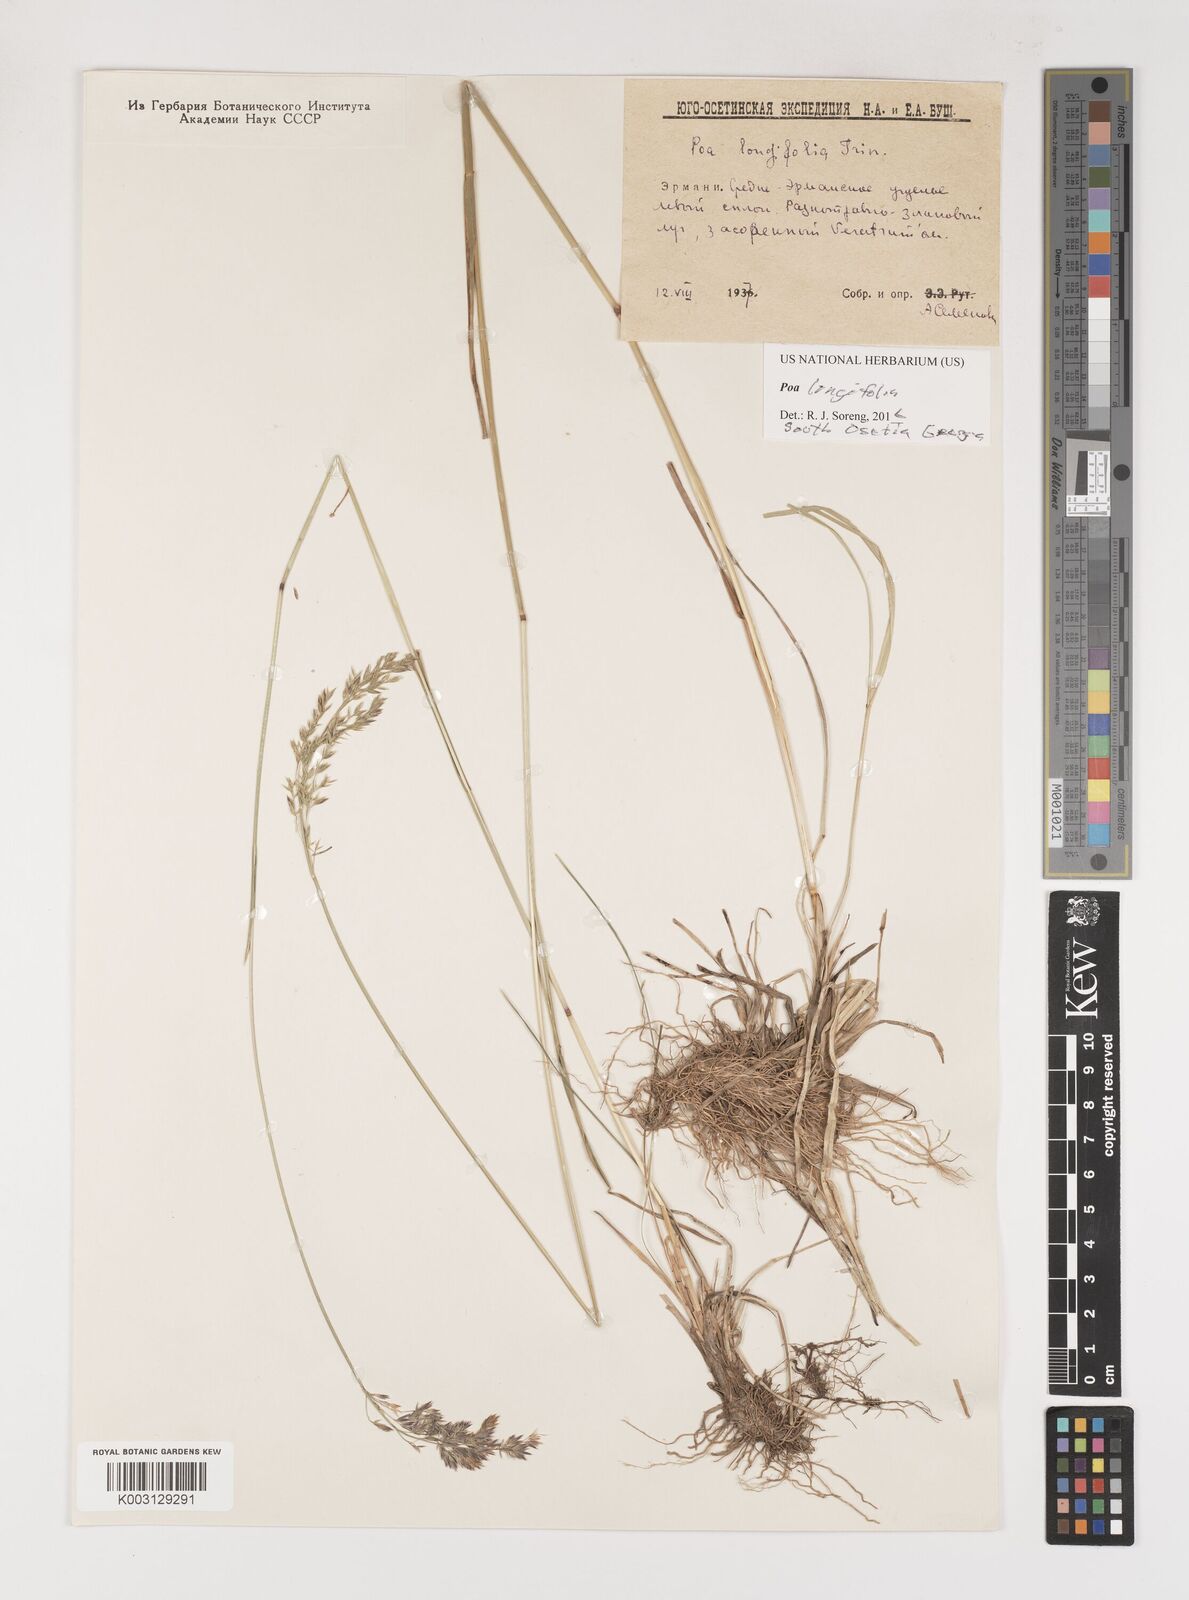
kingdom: Plantae
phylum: Tracheophyta
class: Liliopsida
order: Poales
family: Poaceae
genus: Poa
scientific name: Poa longifolia
